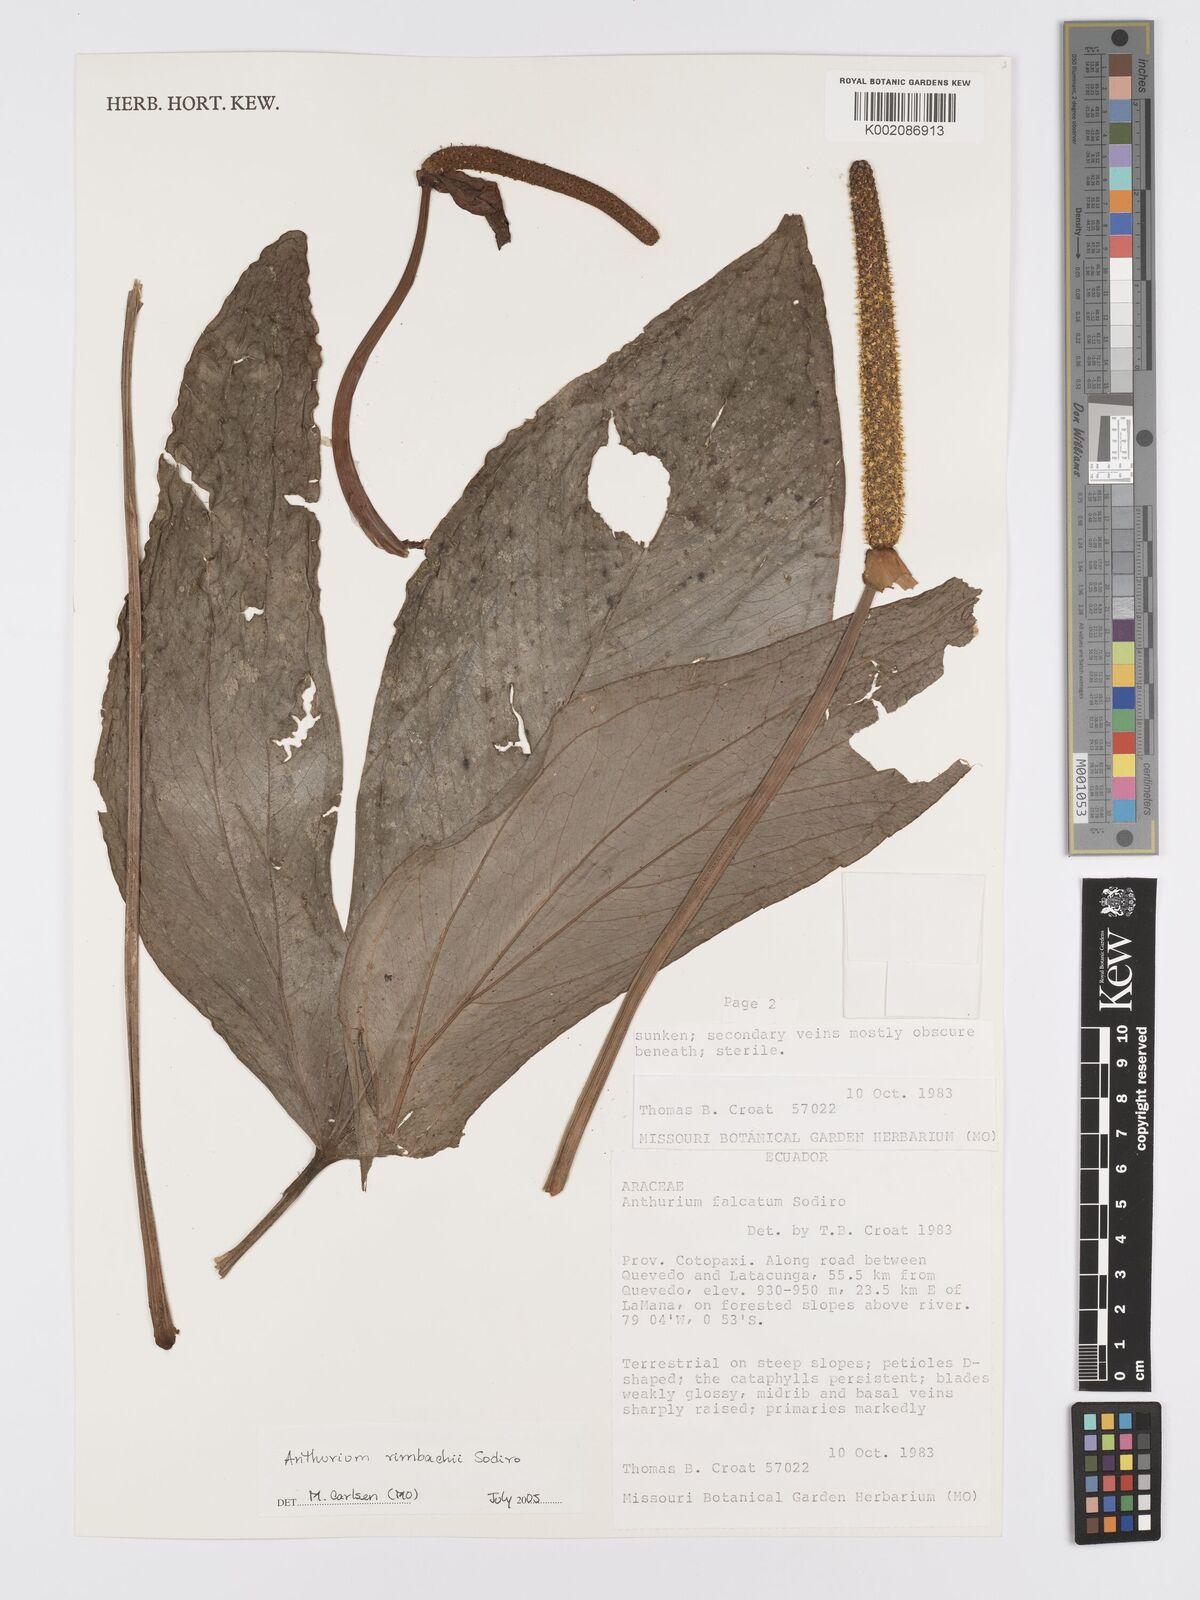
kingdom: Plantae
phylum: Tracheophyta
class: Liliopsida
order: Alismatales
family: Araceae
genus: Anthurium
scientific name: Anthurium rimbachii
